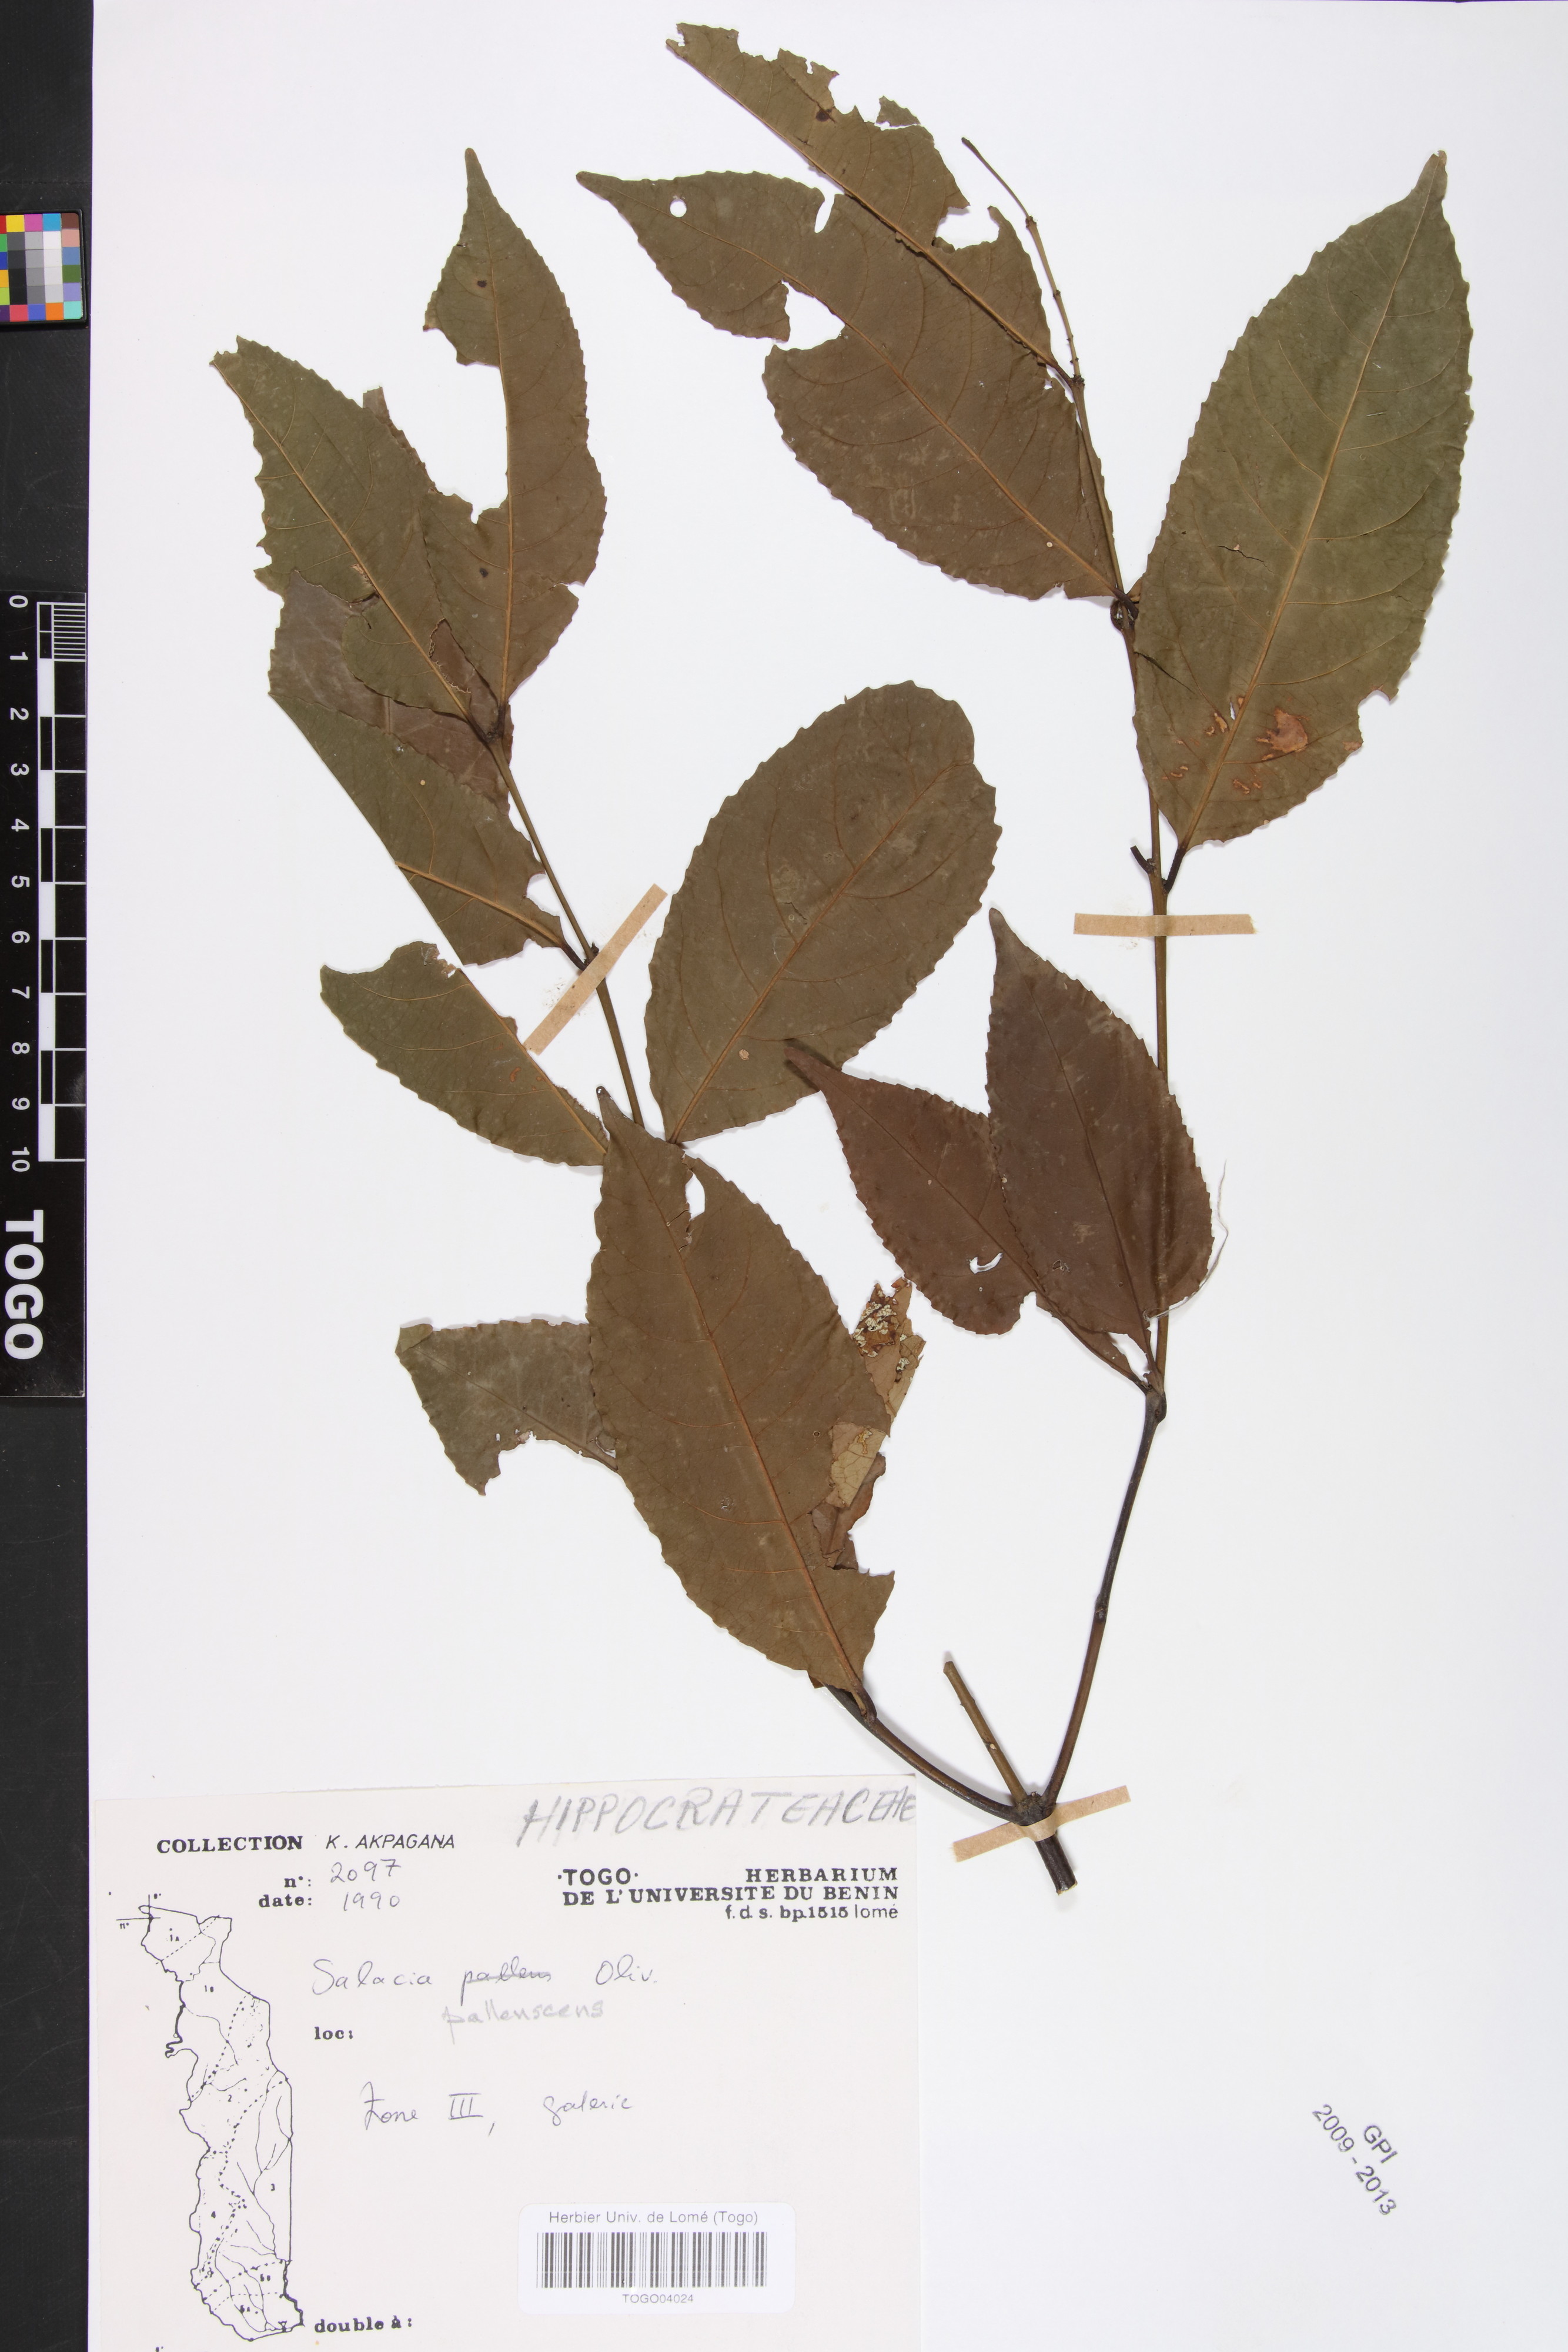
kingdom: Plantae
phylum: Tracheophyta
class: Magnoliopsida
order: Celastrales
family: Celastraceae
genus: Salacia
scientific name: Salacia pallescens
